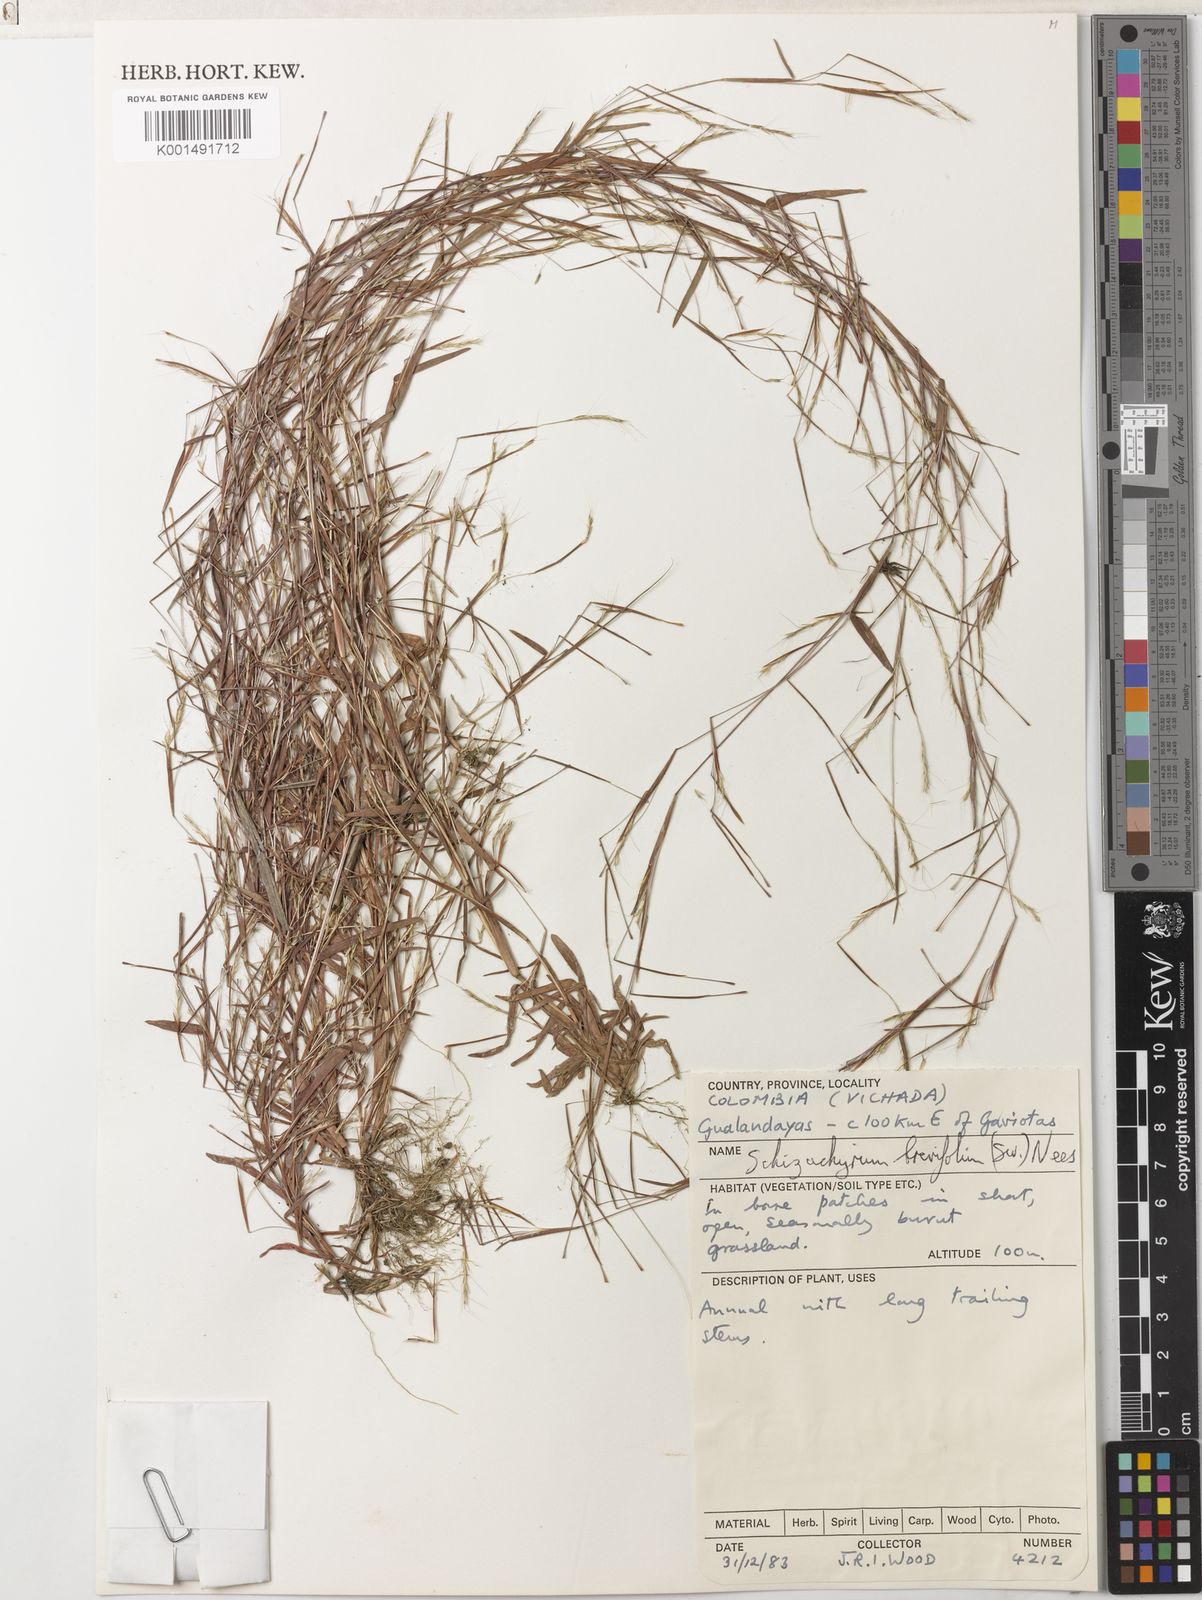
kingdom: Plantae
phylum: Tracheophyta
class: Liliopsida
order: Poales
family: Poaceae
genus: Schizachyrium
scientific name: Schizachyrium brevifolium
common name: Serillo dulce
